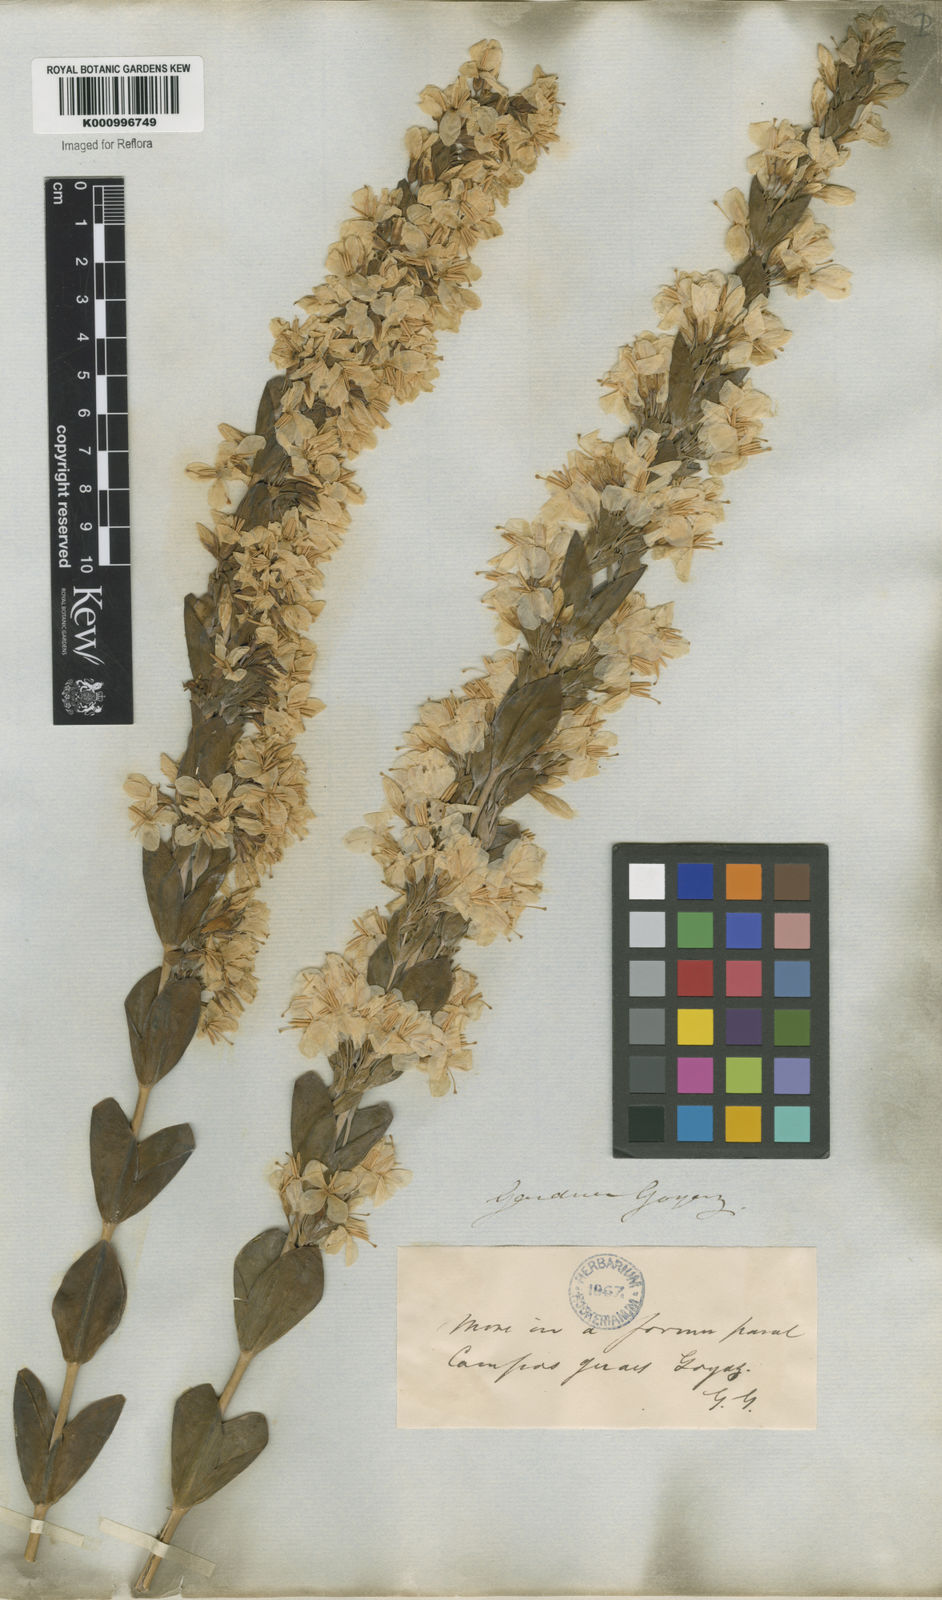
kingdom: Plantae
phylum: Tracheophyta
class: Magnoliopsida
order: Gentianales
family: Gentianaceae
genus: Deianira
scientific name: Deianira pallescens
